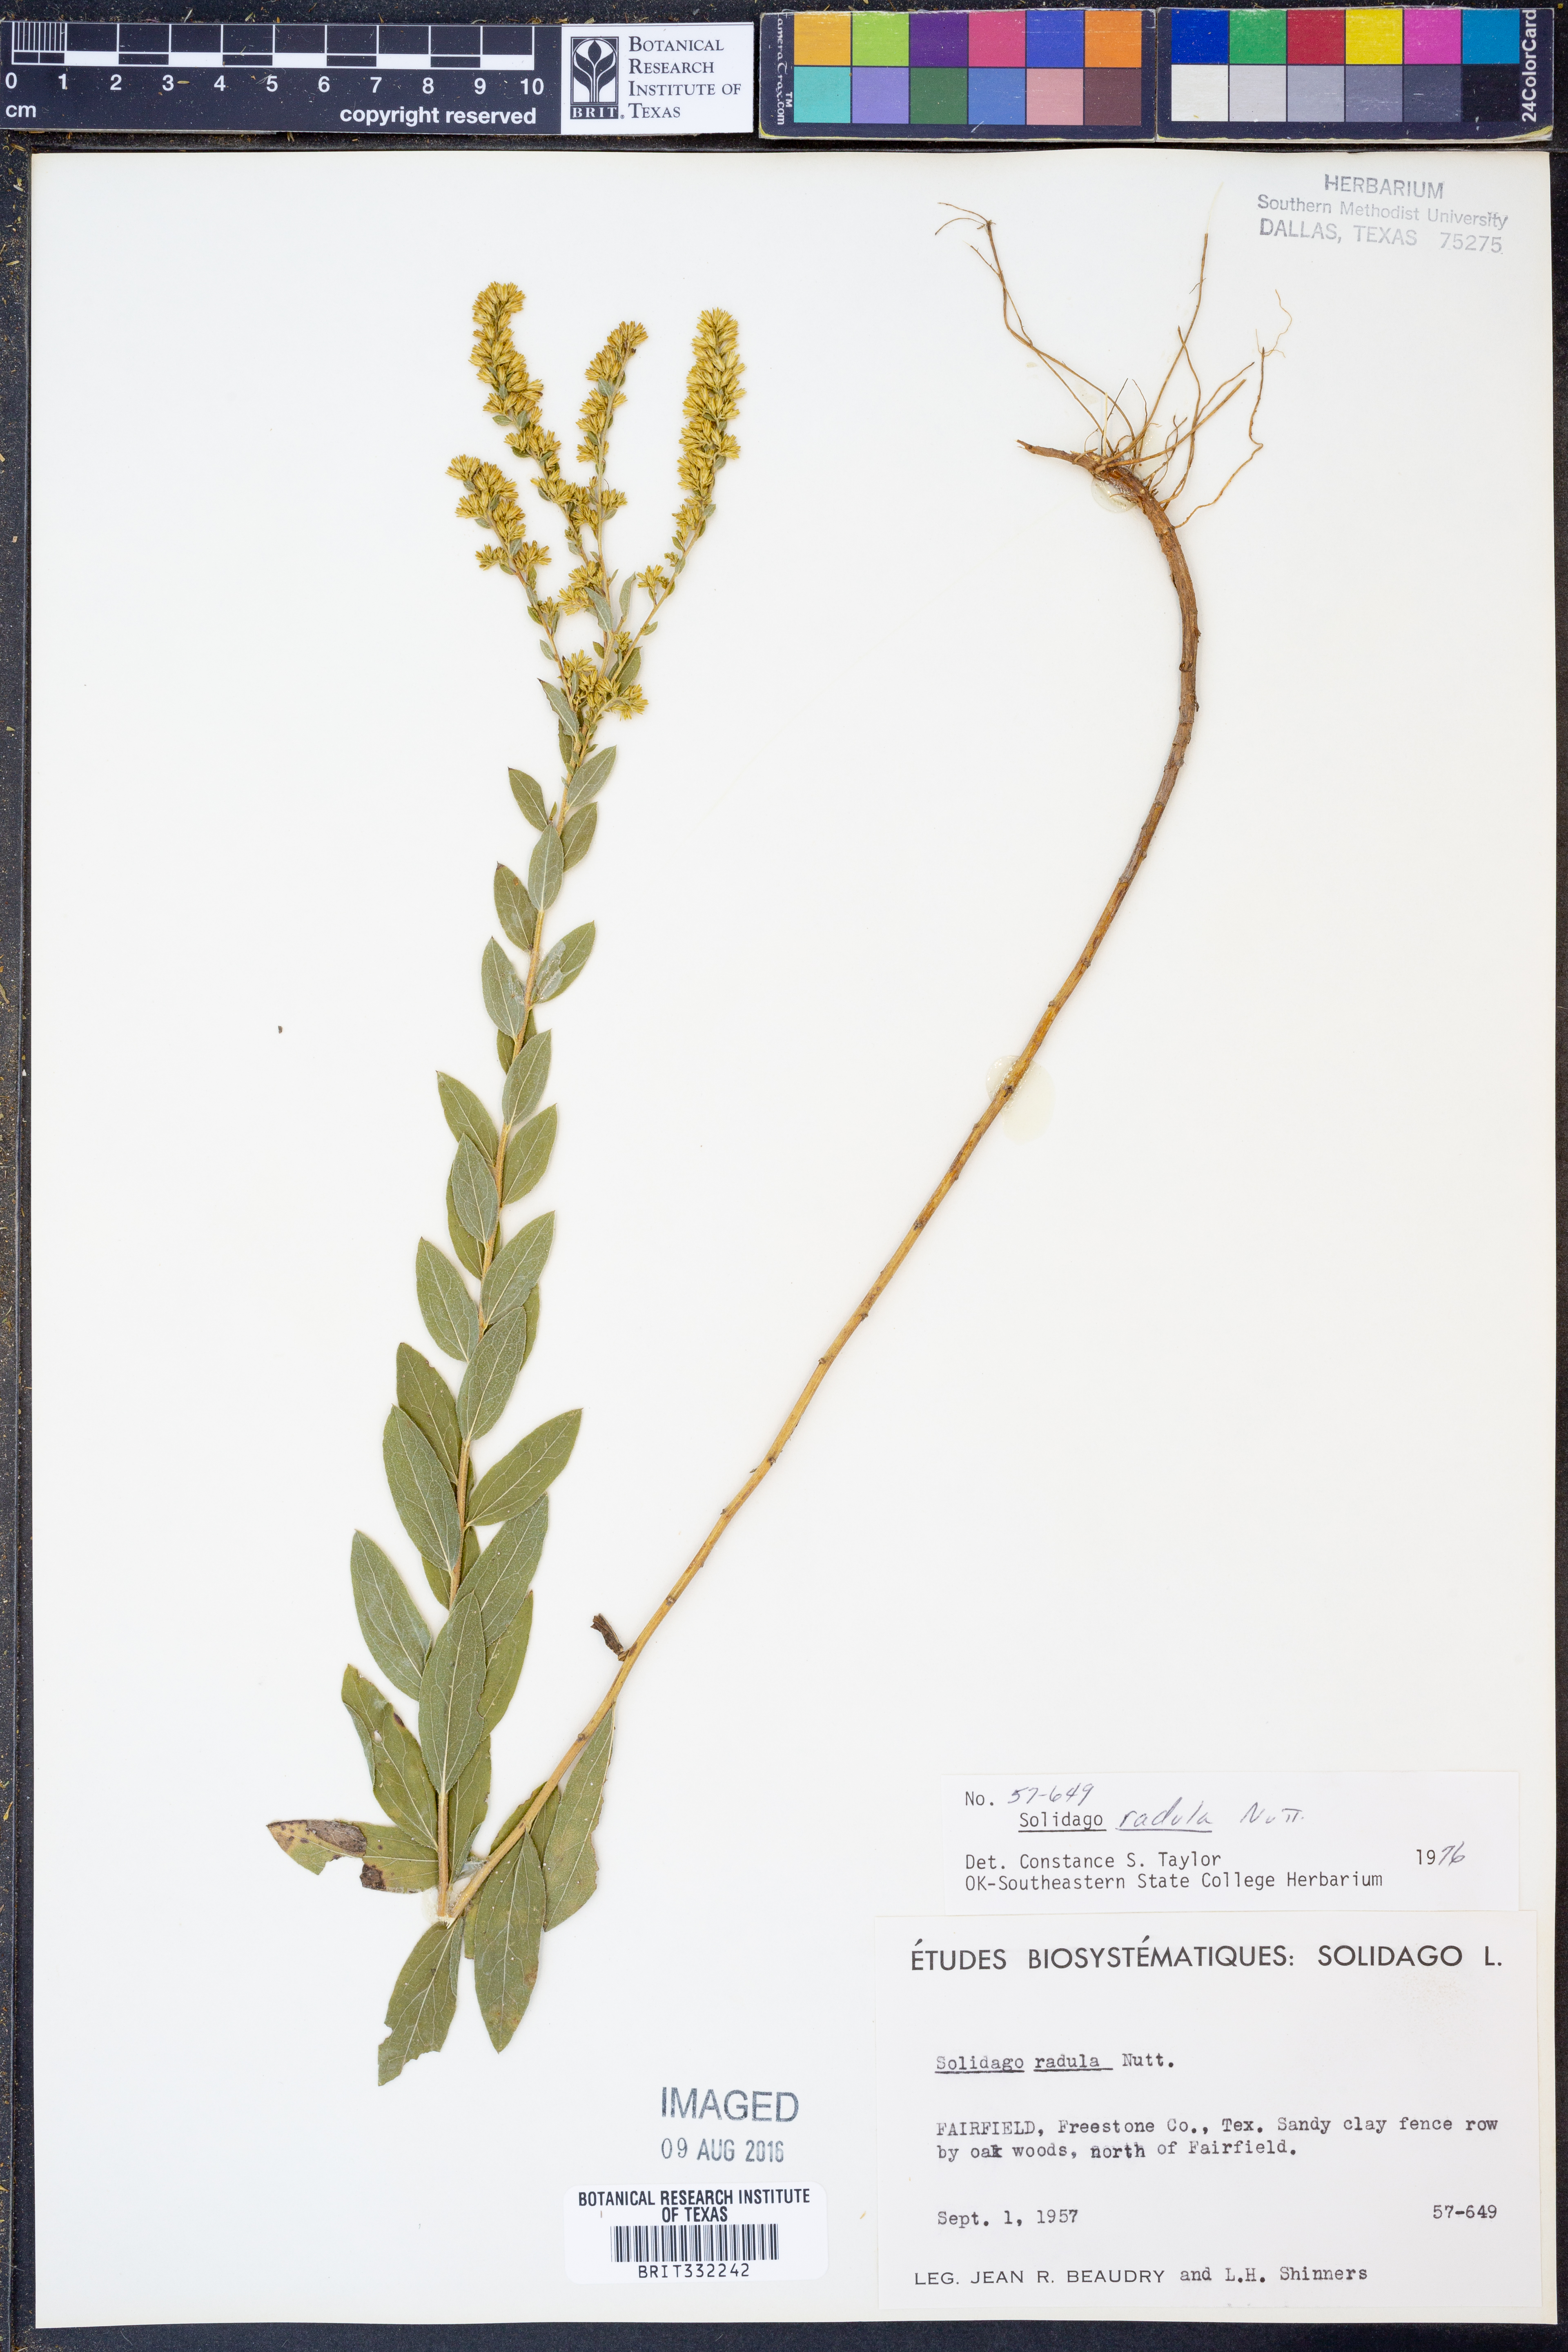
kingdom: Plantae
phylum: Tracheophyta
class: Magnoliopsida
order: Asterales
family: Asteraceae
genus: Solidago
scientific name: Solidago radula
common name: Western rough goldenrod
